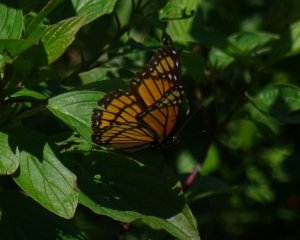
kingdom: Animalia
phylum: Arthropoda
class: Insecta
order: Lepidoptera
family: Nymphalidae
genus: Limenitis
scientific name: Limenitis archippus
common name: Viceroy
